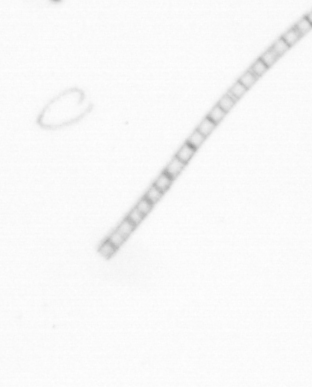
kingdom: Chromista
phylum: Ochrophyta
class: Bacillariophyceae
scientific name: Bacillariophyceae
